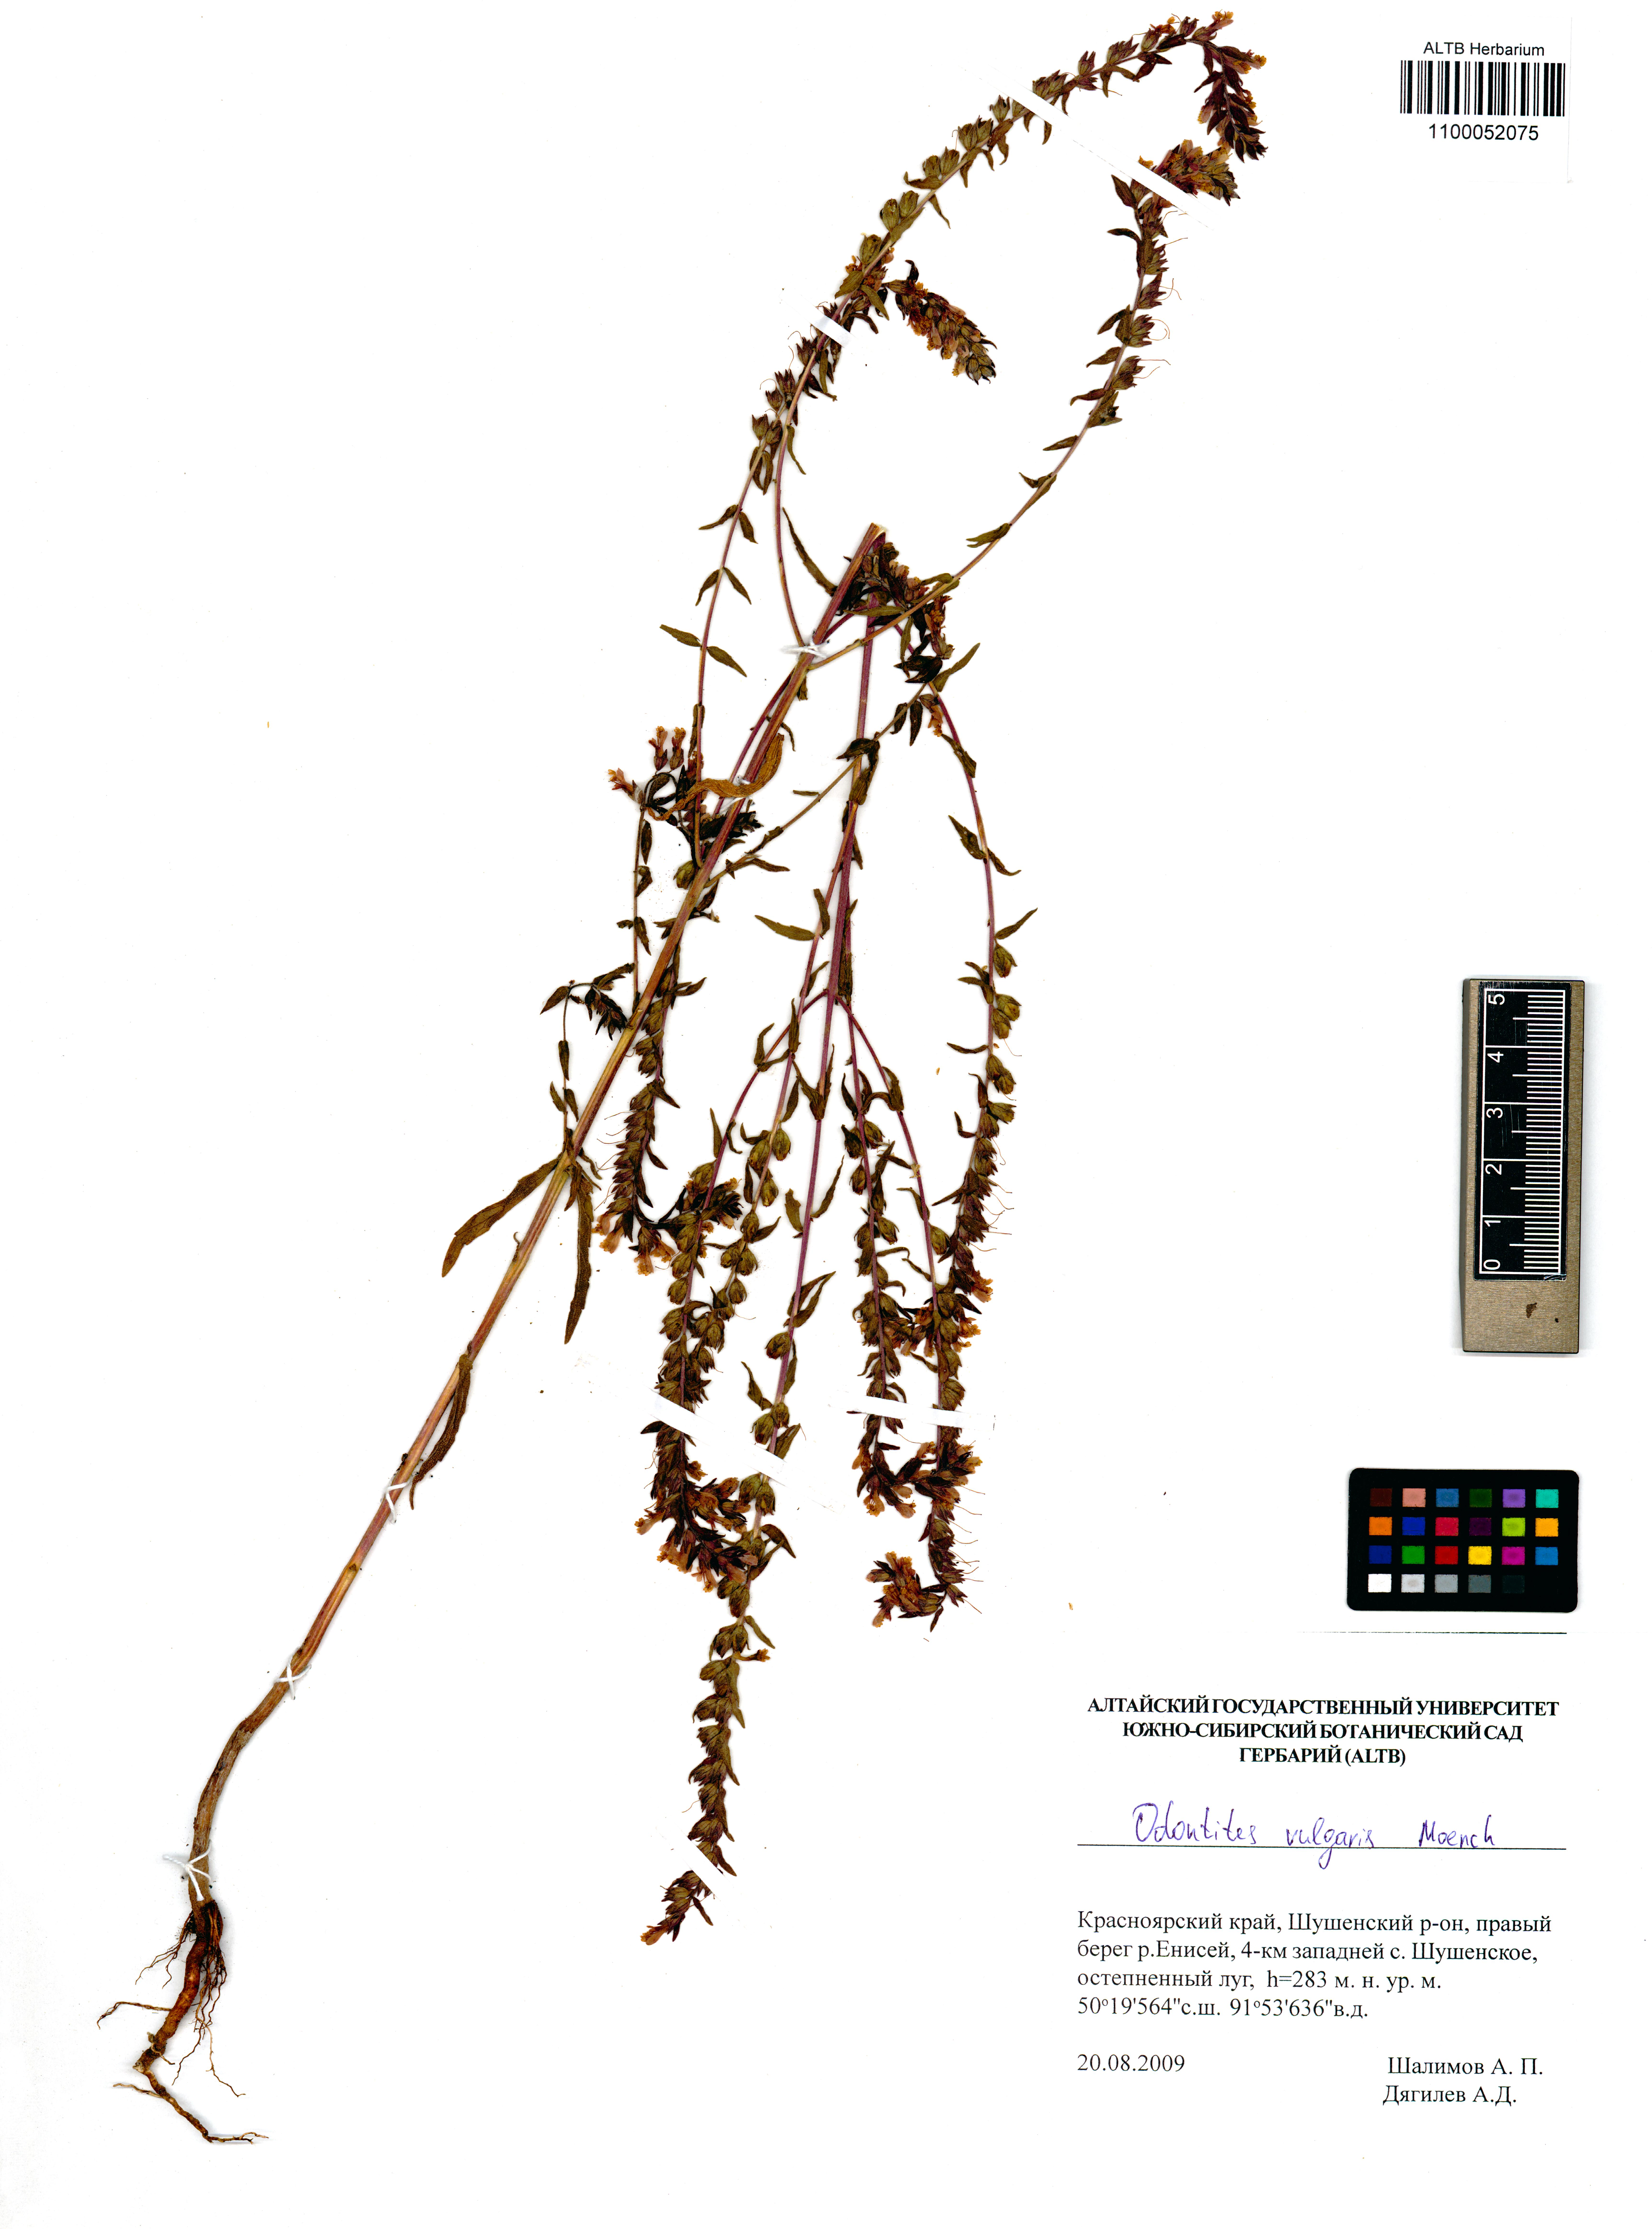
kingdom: Plantae
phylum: Tracheophyta
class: Magnoliopsida
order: Lamiales
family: Orobanchaceae
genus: Odontites
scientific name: Odontites vulgaris
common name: Broomrape
